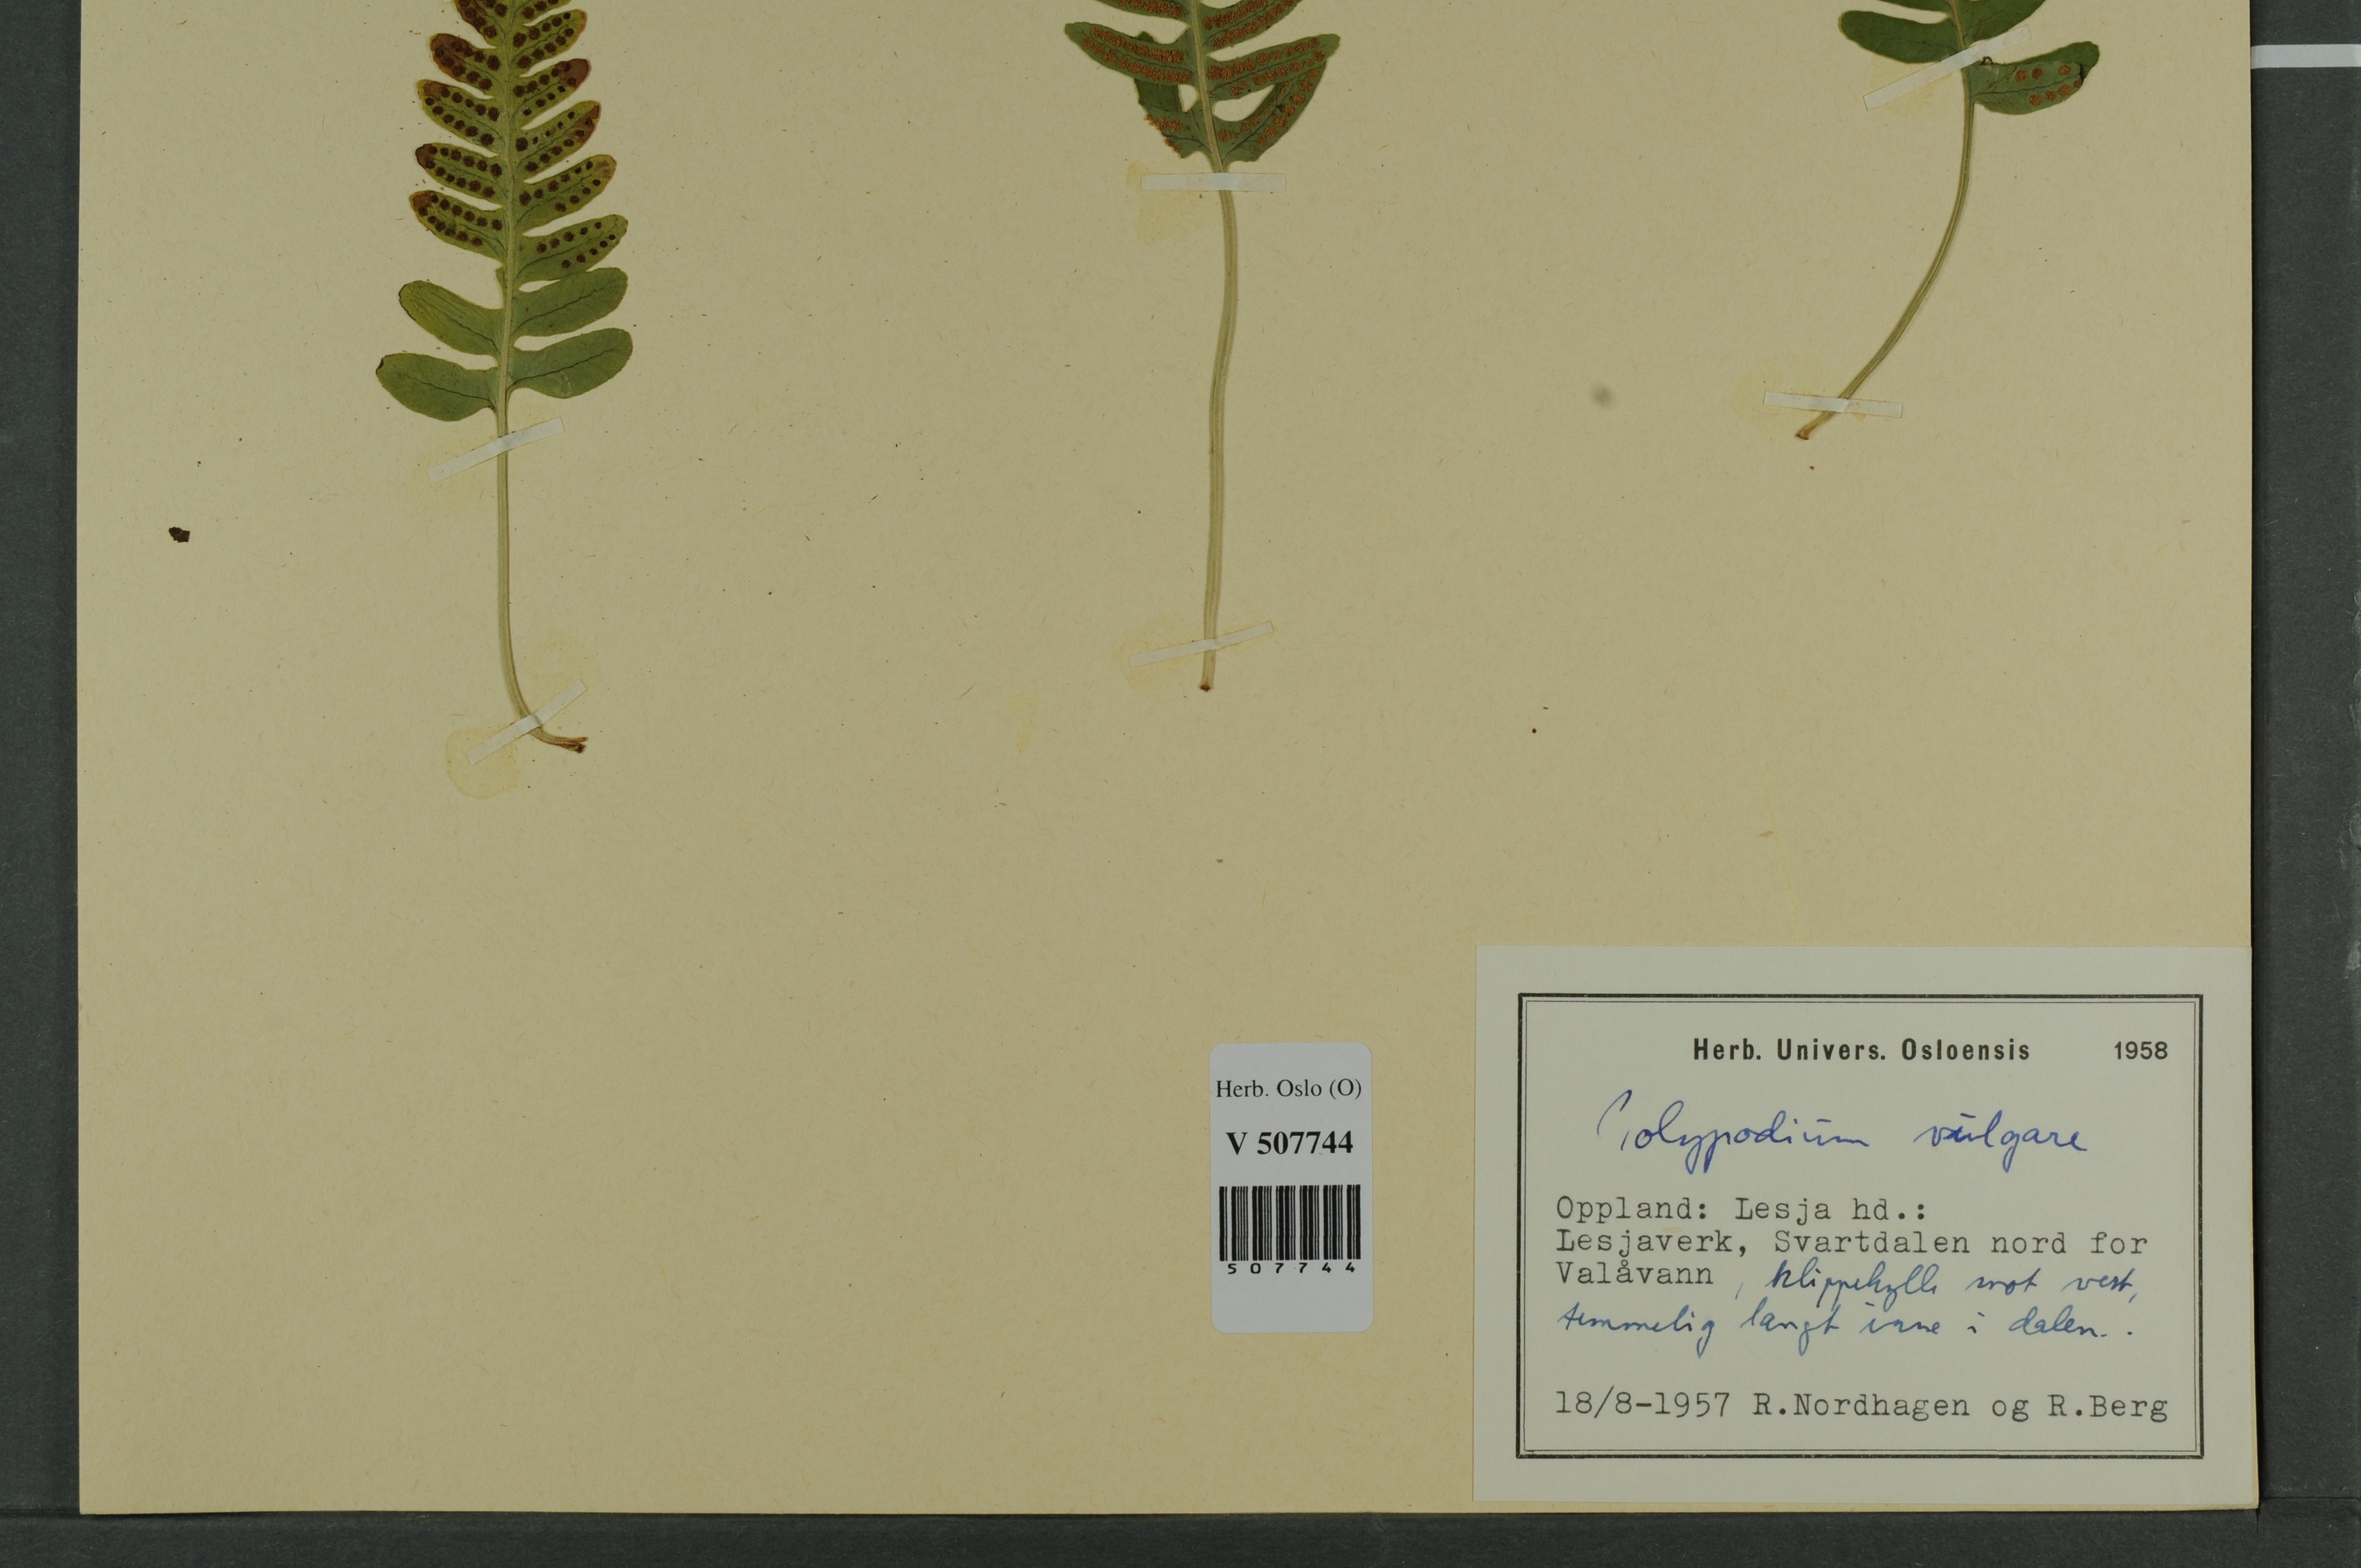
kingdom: Plantae
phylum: Tracheophyta
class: Polypodiopsida
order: Polypodiales
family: Polypodiaceae
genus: Polypodium
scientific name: Polypodium vulgare
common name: Common polypody
